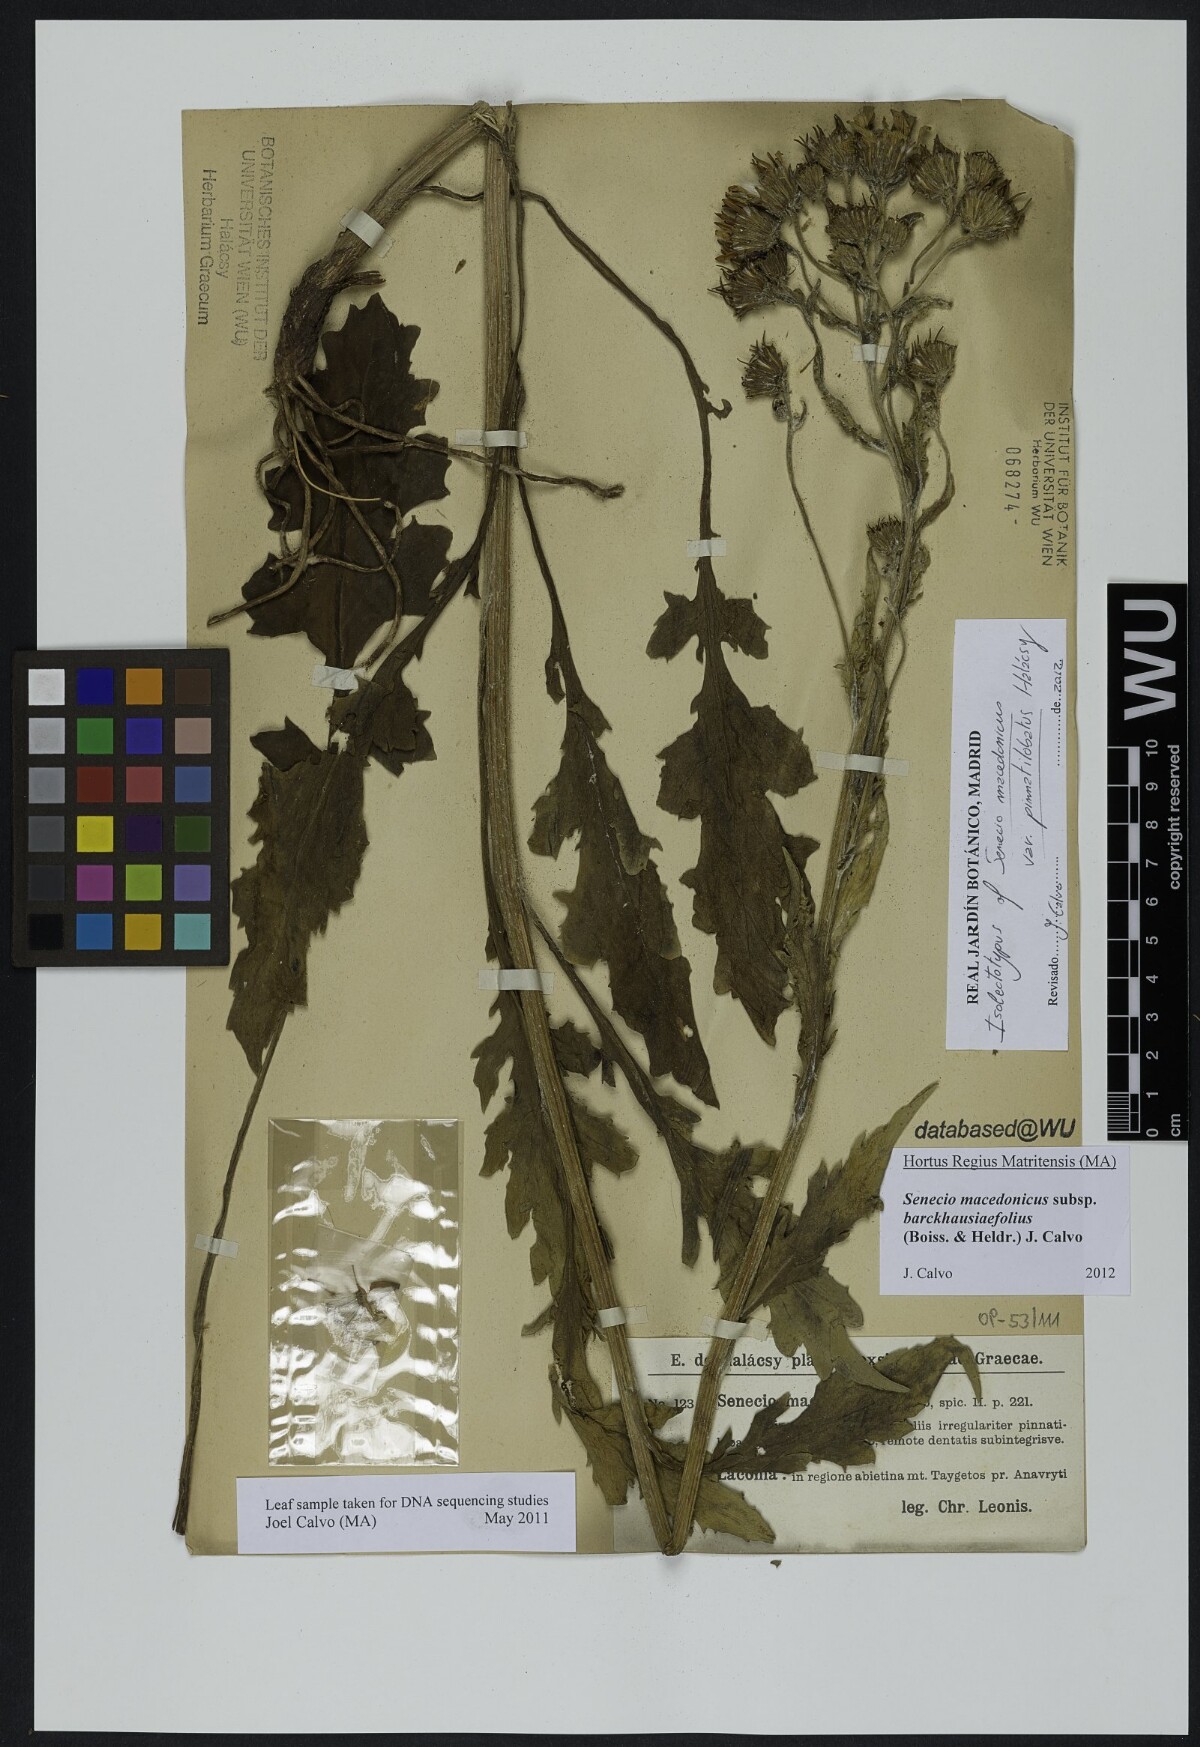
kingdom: Plantae
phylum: Tracheophyta
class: Magnoliopsida
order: Asterales
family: Asteraceae
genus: Senecio
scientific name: Senecio macedonicus
